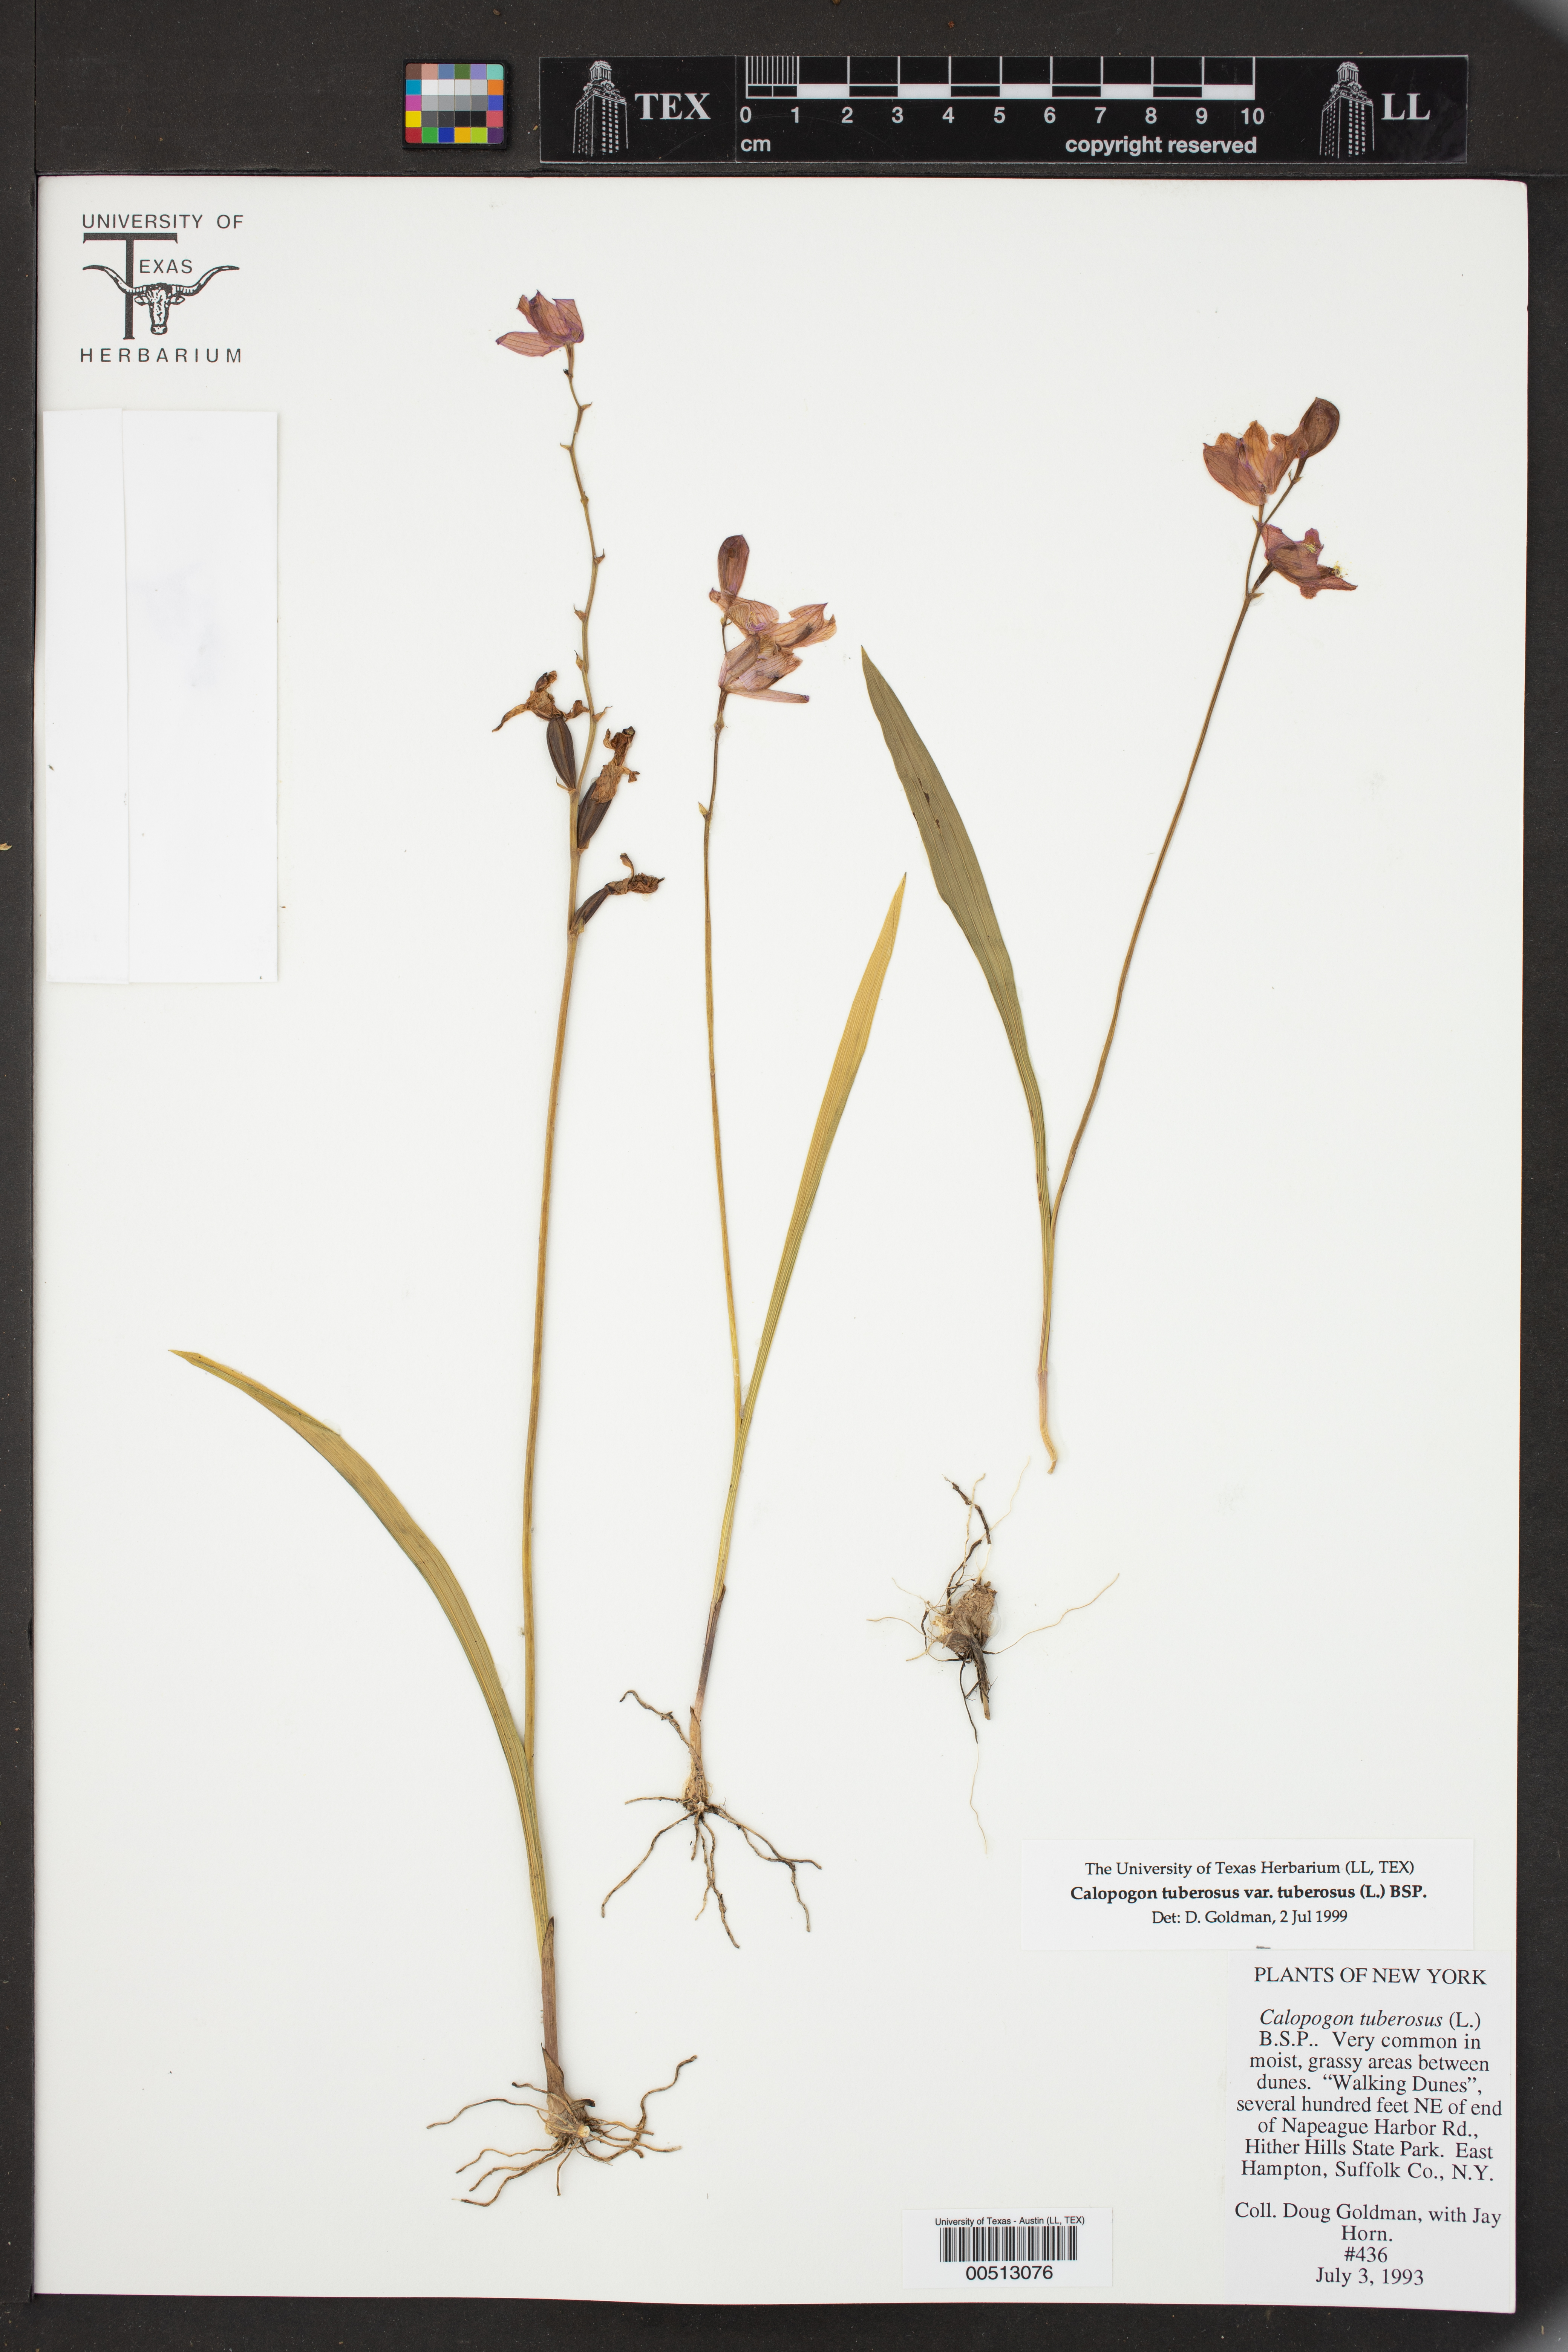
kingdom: Plantae
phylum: Tracheophyta
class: Liliopsida
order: Asparagales
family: Orchidaceae
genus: Calopogon
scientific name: Calopogon tuberosus
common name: Grass-pink
